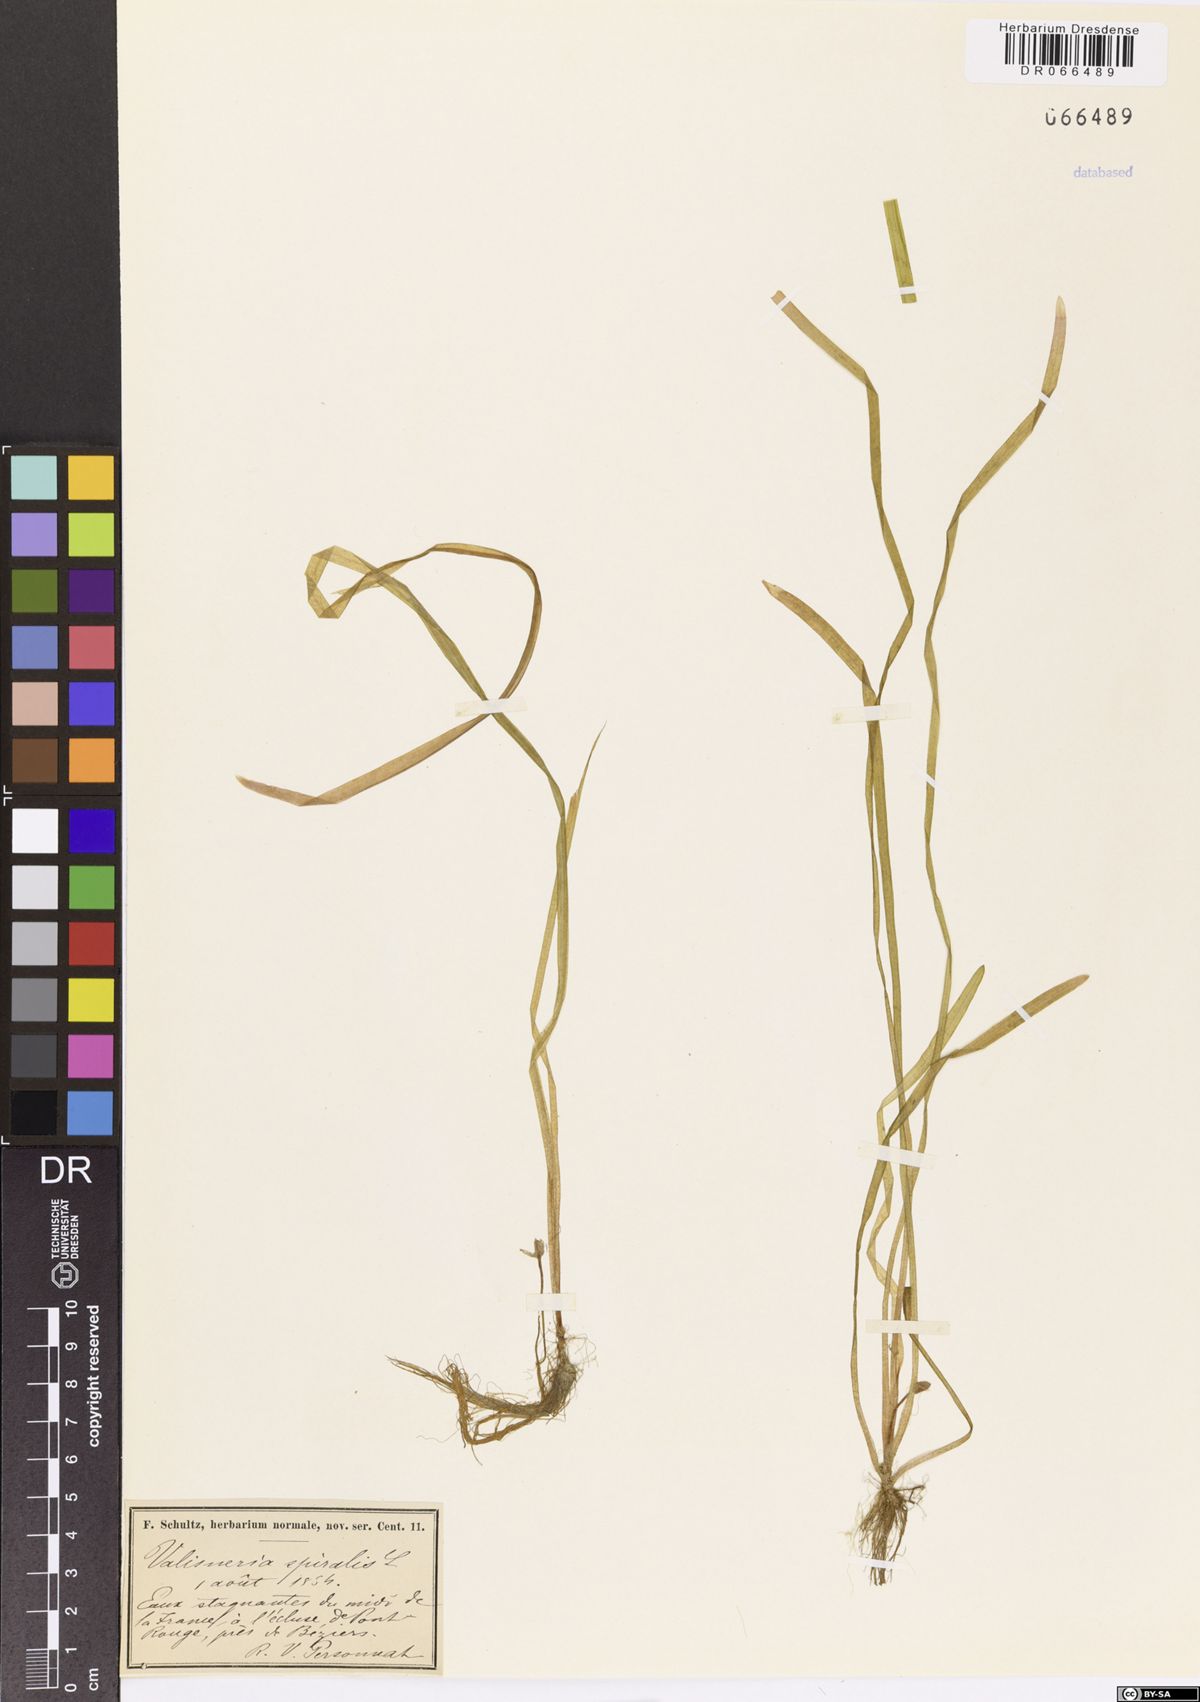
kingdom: Plantae
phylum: Tracheophyta
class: Liliopsida
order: Alismatales
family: Hydrocharitaceae
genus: Vallisneria
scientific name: Vallisneria spiralis
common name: Tapegrass
